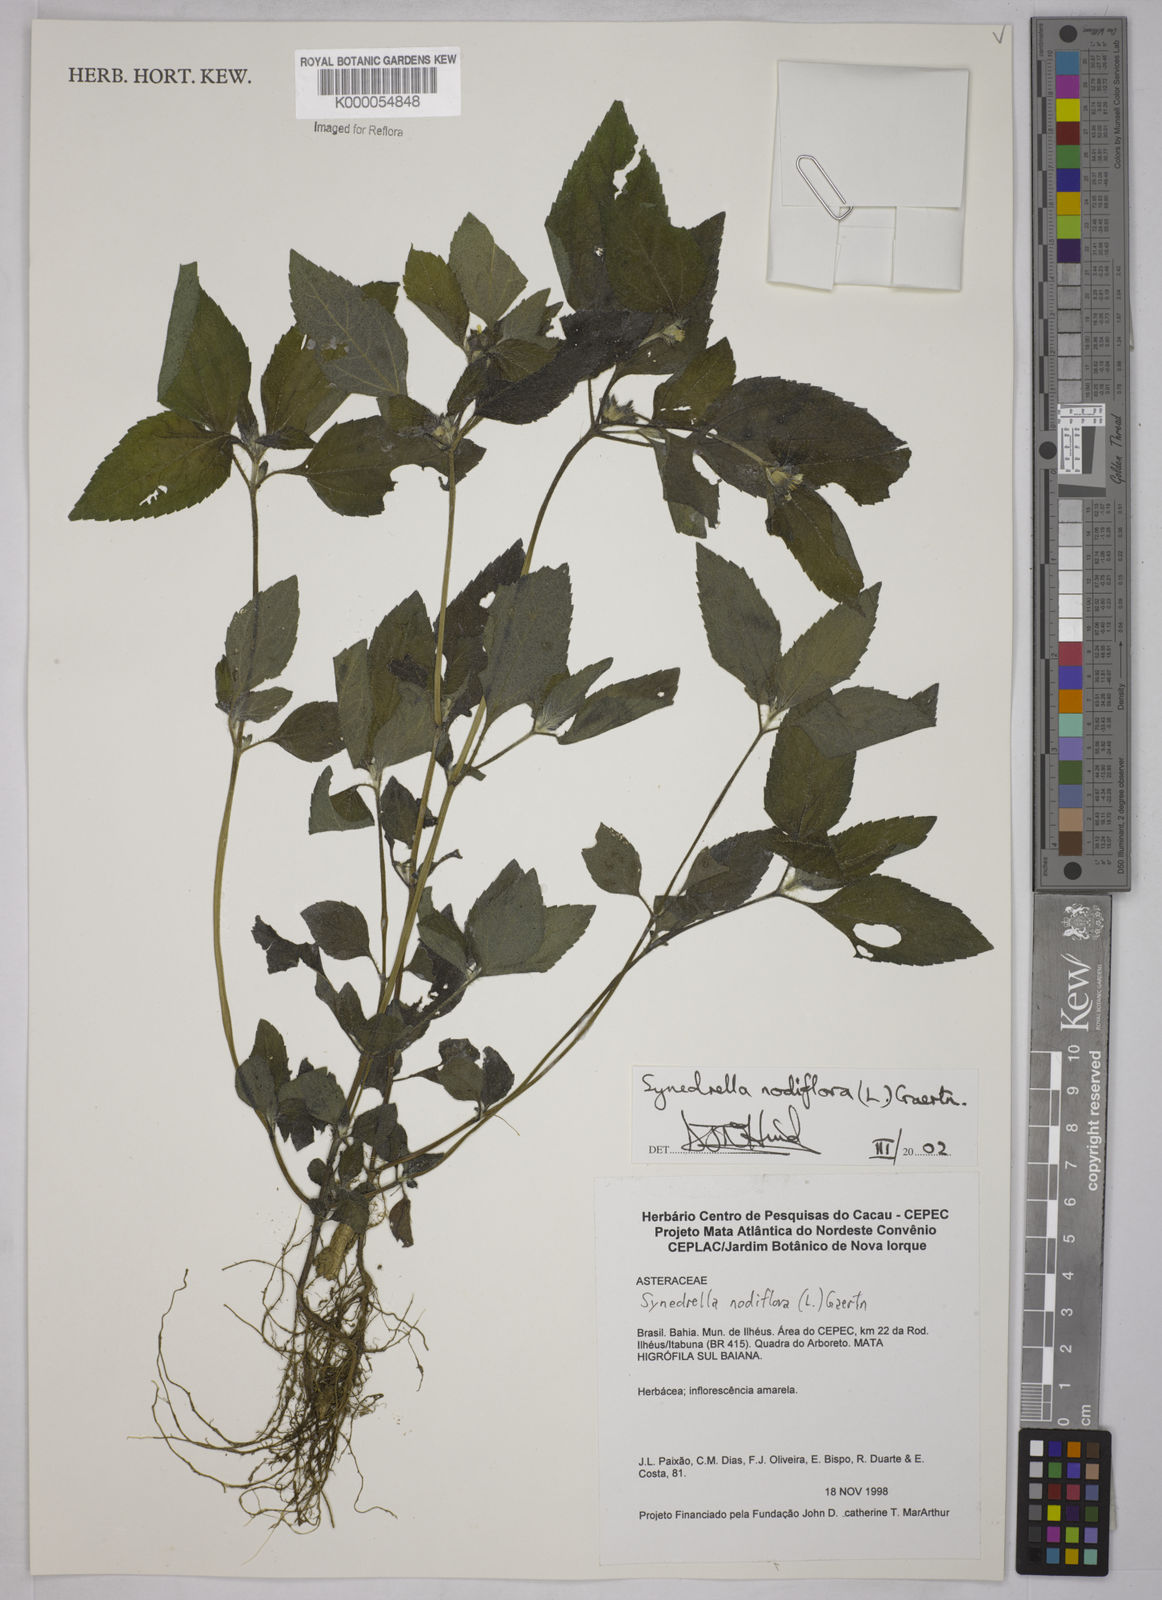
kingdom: Plantae
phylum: Tracheophyta
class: Magnoliopsida
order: Asterales
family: Asteraceae
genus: Synedrella
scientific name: Synedrella nodiflora
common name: Nodeweed
